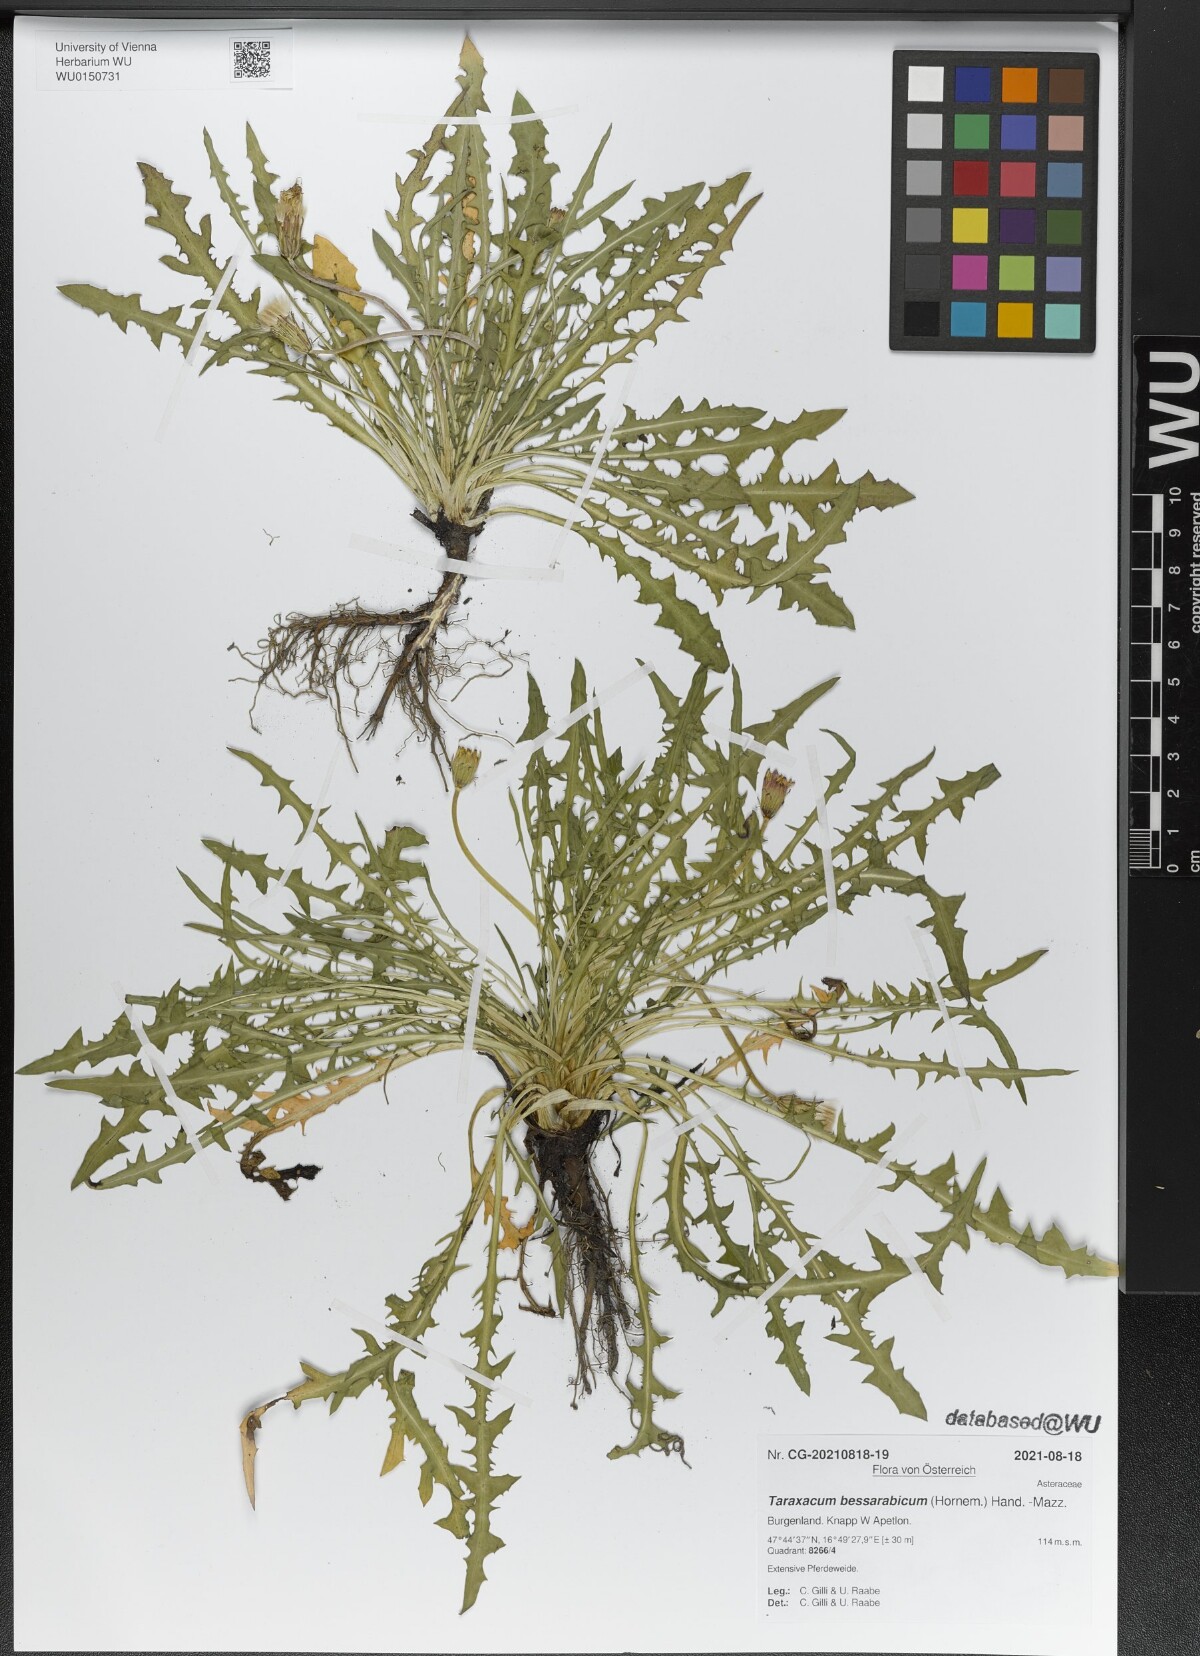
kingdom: Plantae
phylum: Tracheophyta
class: Magnoliopsida
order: Asterales
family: Asteraceae
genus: Taraxacum
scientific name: Taraxacum bessarabicum
